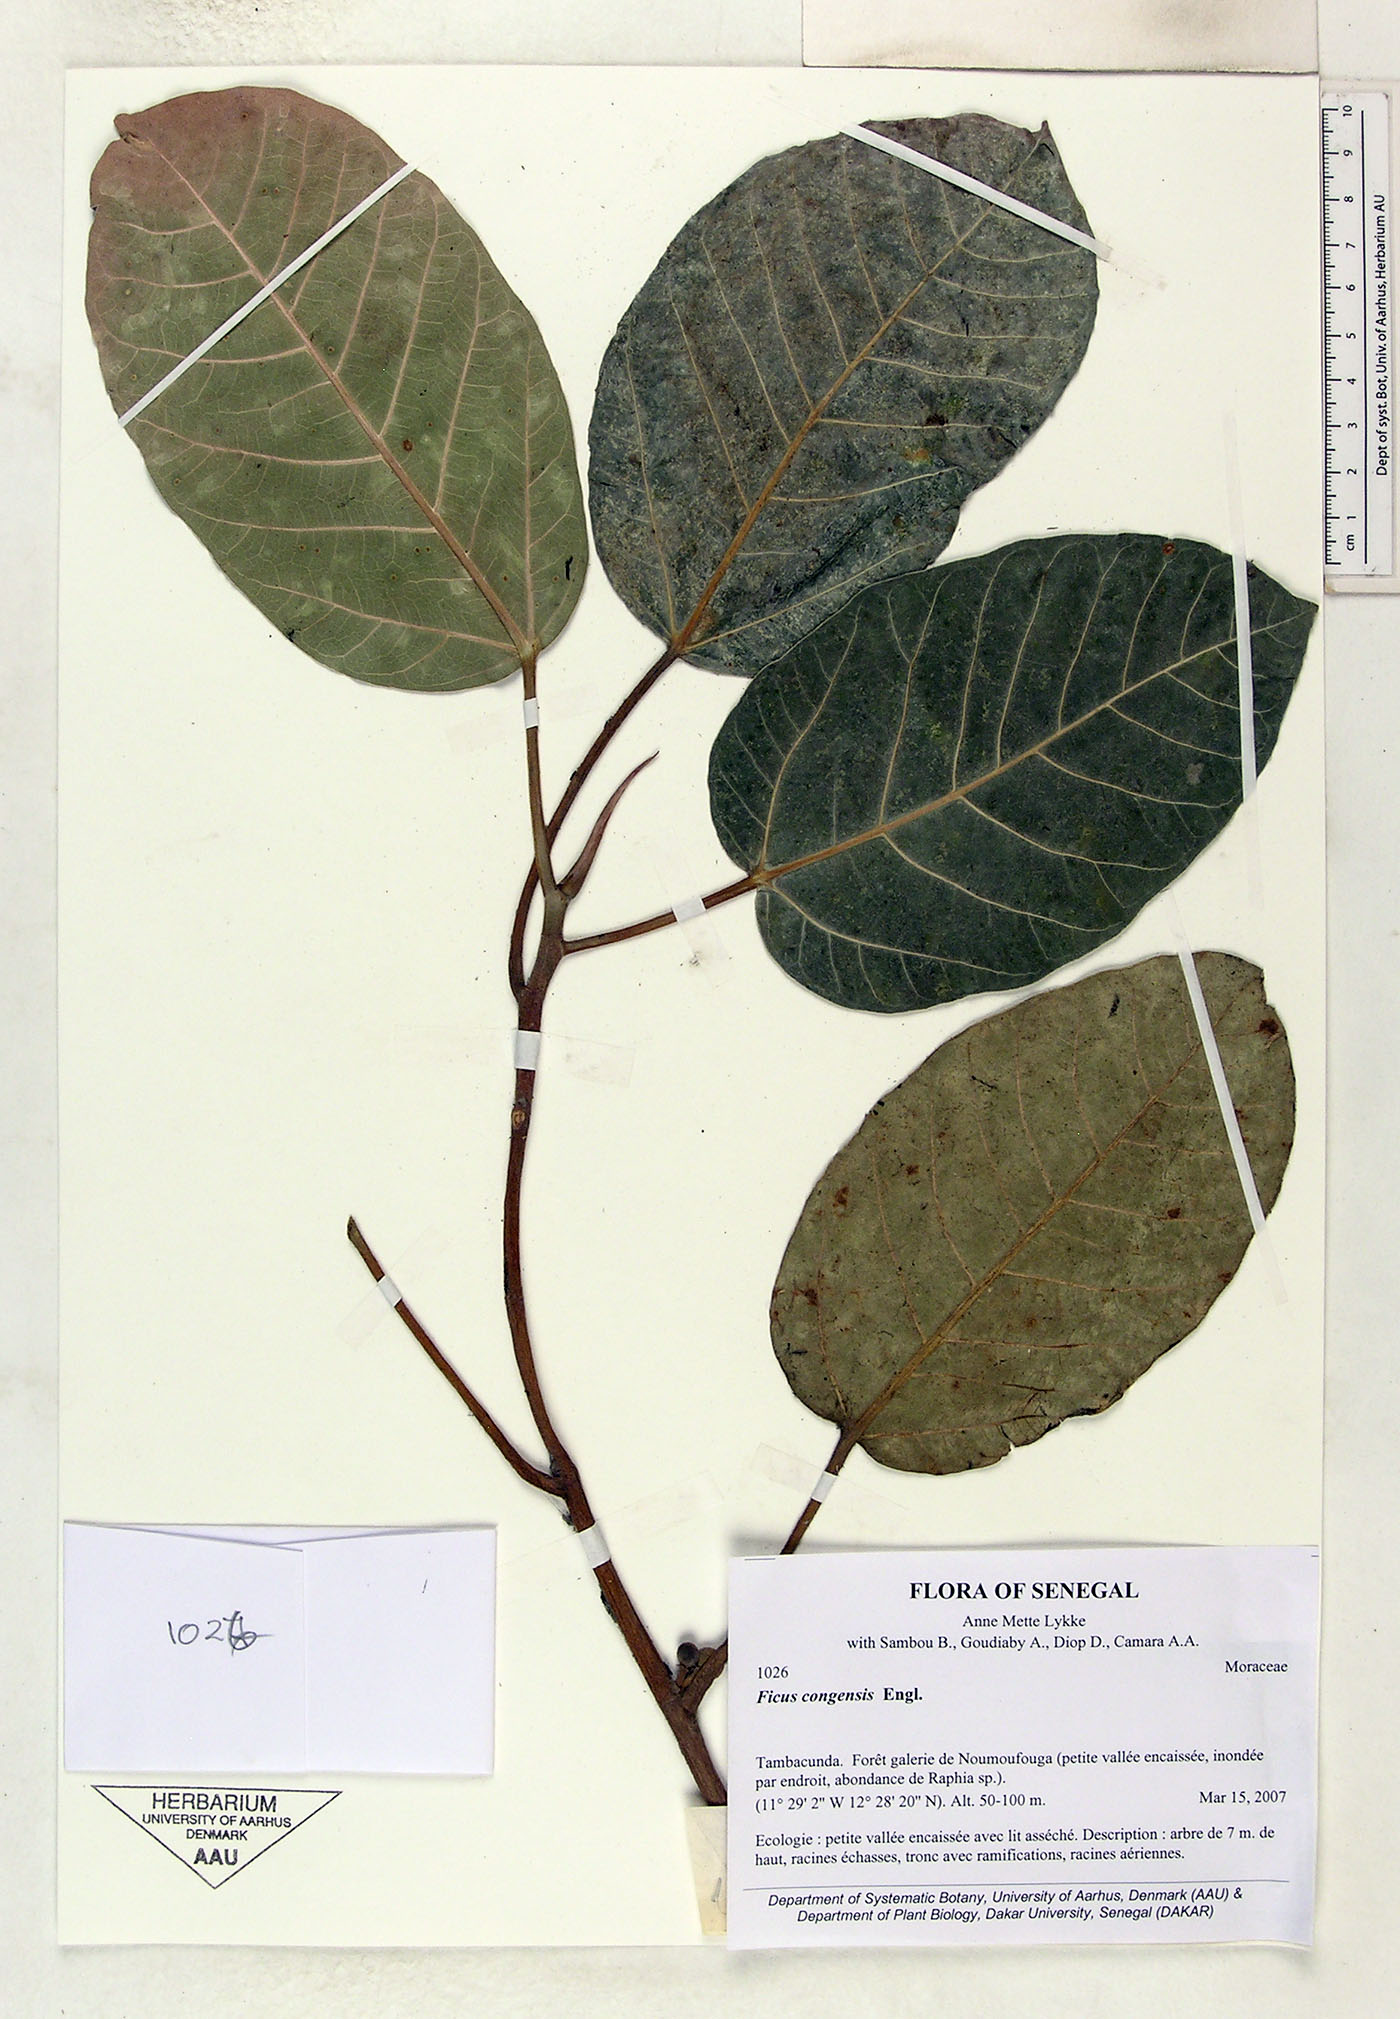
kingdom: Plantae
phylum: Tracheophyta
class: Magnoliopsida
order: Rosales
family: Moraceae
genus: Ficus
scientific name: Ficus trichopoda
